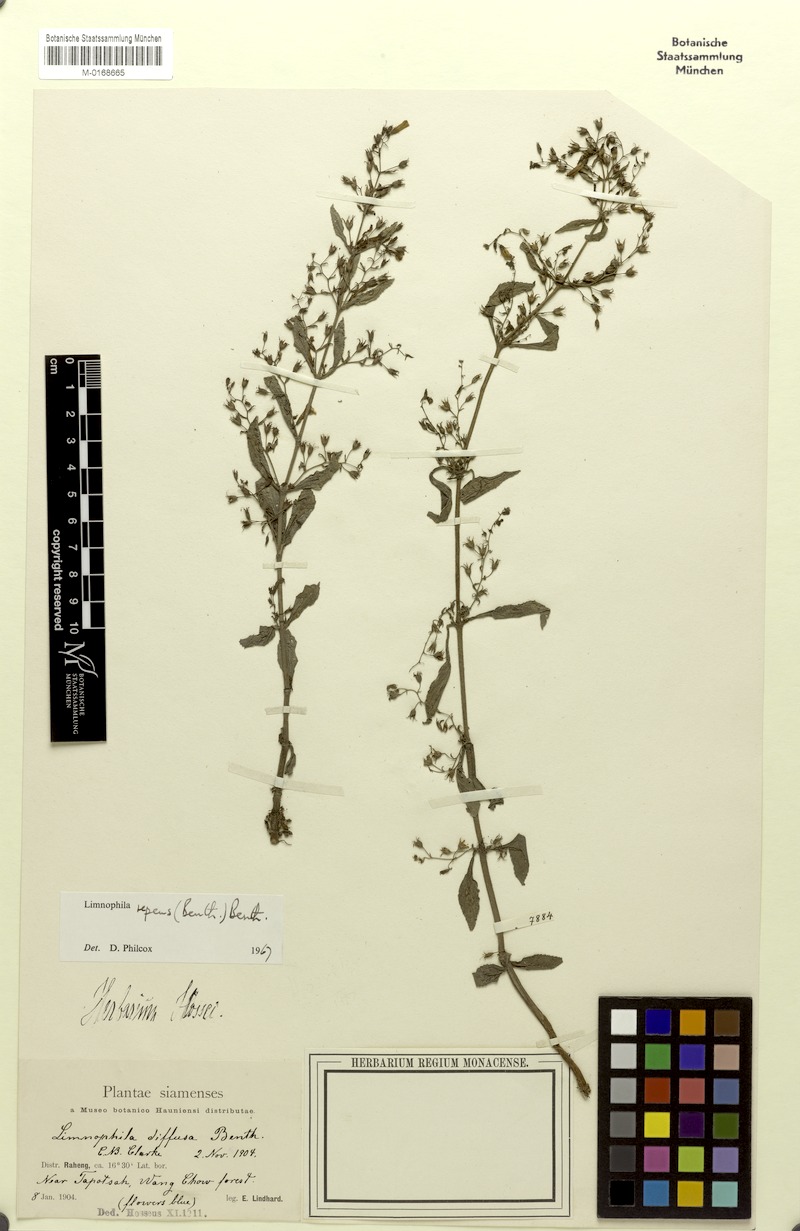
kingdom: Plantae
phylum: Tracheophyta
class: Magnoliopsida
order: Lamiales
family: Plantaginaceae
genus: Limnophila
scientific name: Limnophila repens
